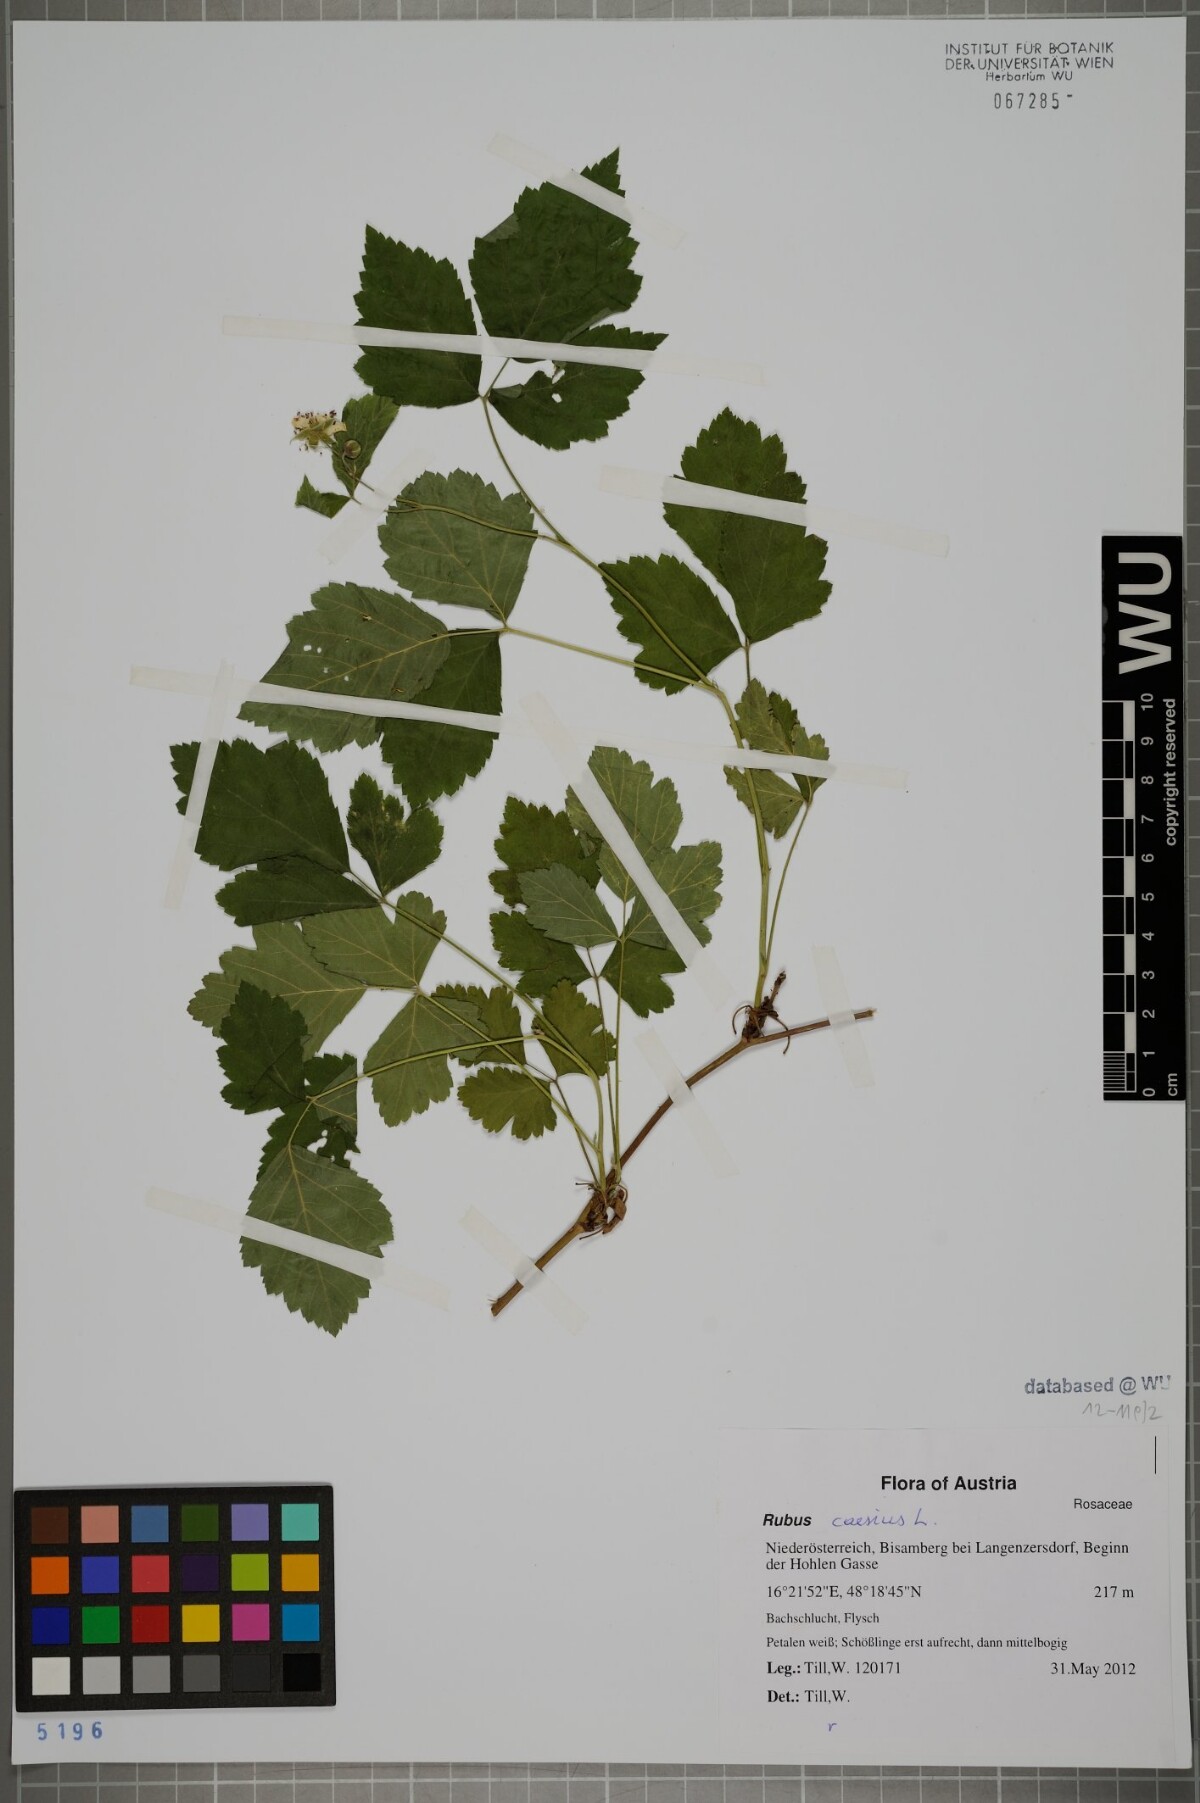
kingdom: Plantae
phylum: Tracheophyta
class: Magnoliopsida
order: Rosales
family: Rosaceae
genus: Rubus
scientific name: Rubus caesius
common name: Dewberry
